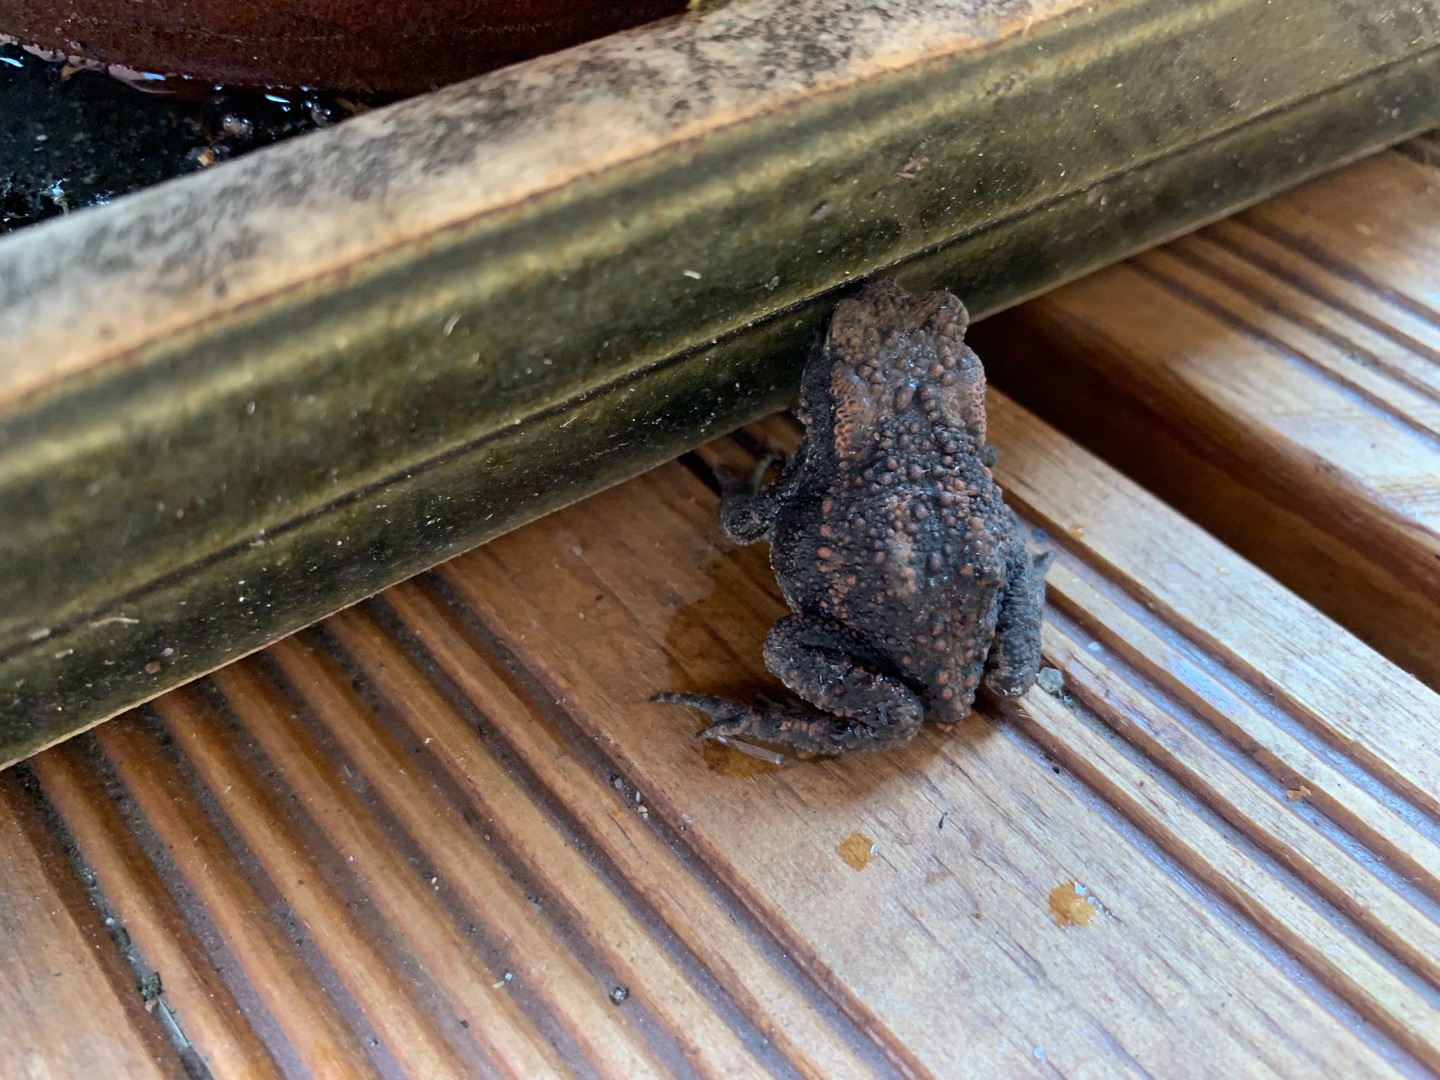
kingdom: Animalia
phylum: Chordata
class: Amphibia
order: Anura
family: Bufonidae
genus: Bufo
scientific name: Bufo bufo
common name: Skrubtudse
